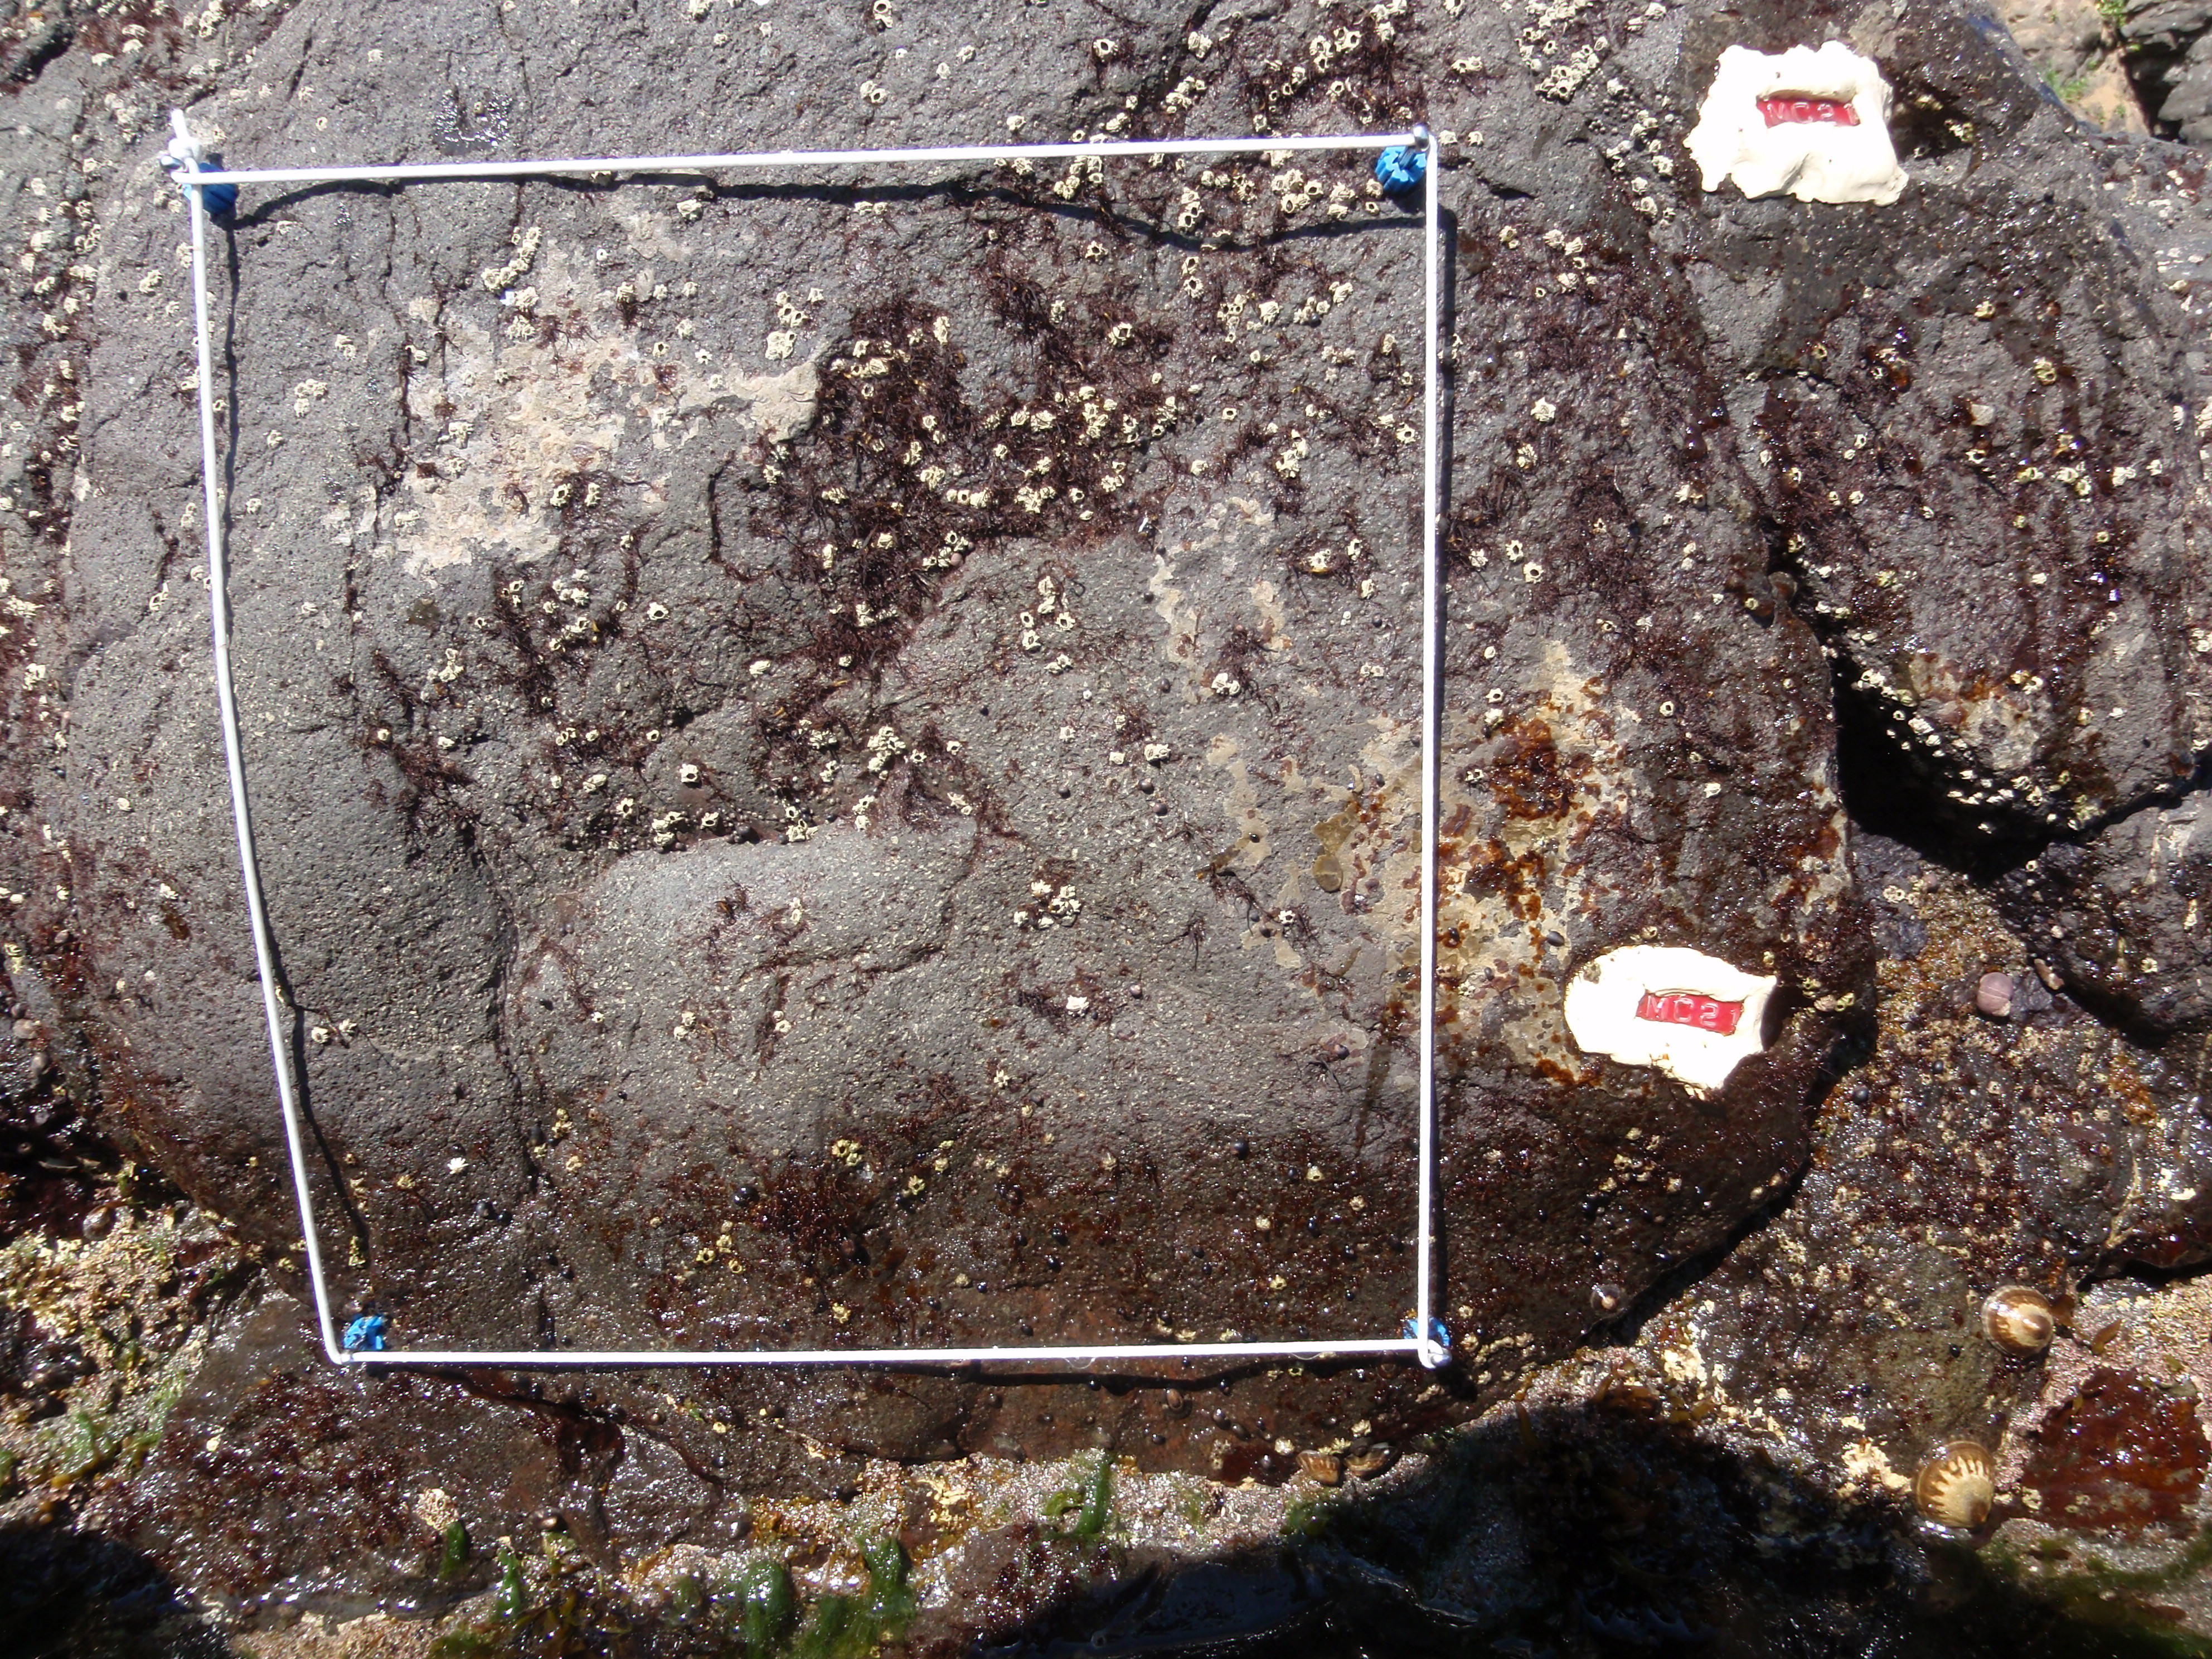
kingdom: Plantae
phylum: Rhodophyta
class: Florideophyceae
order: Gigartinales
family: Endocladiaceae
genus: Gloiopeltis
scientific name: Gloiopeltis furcata
